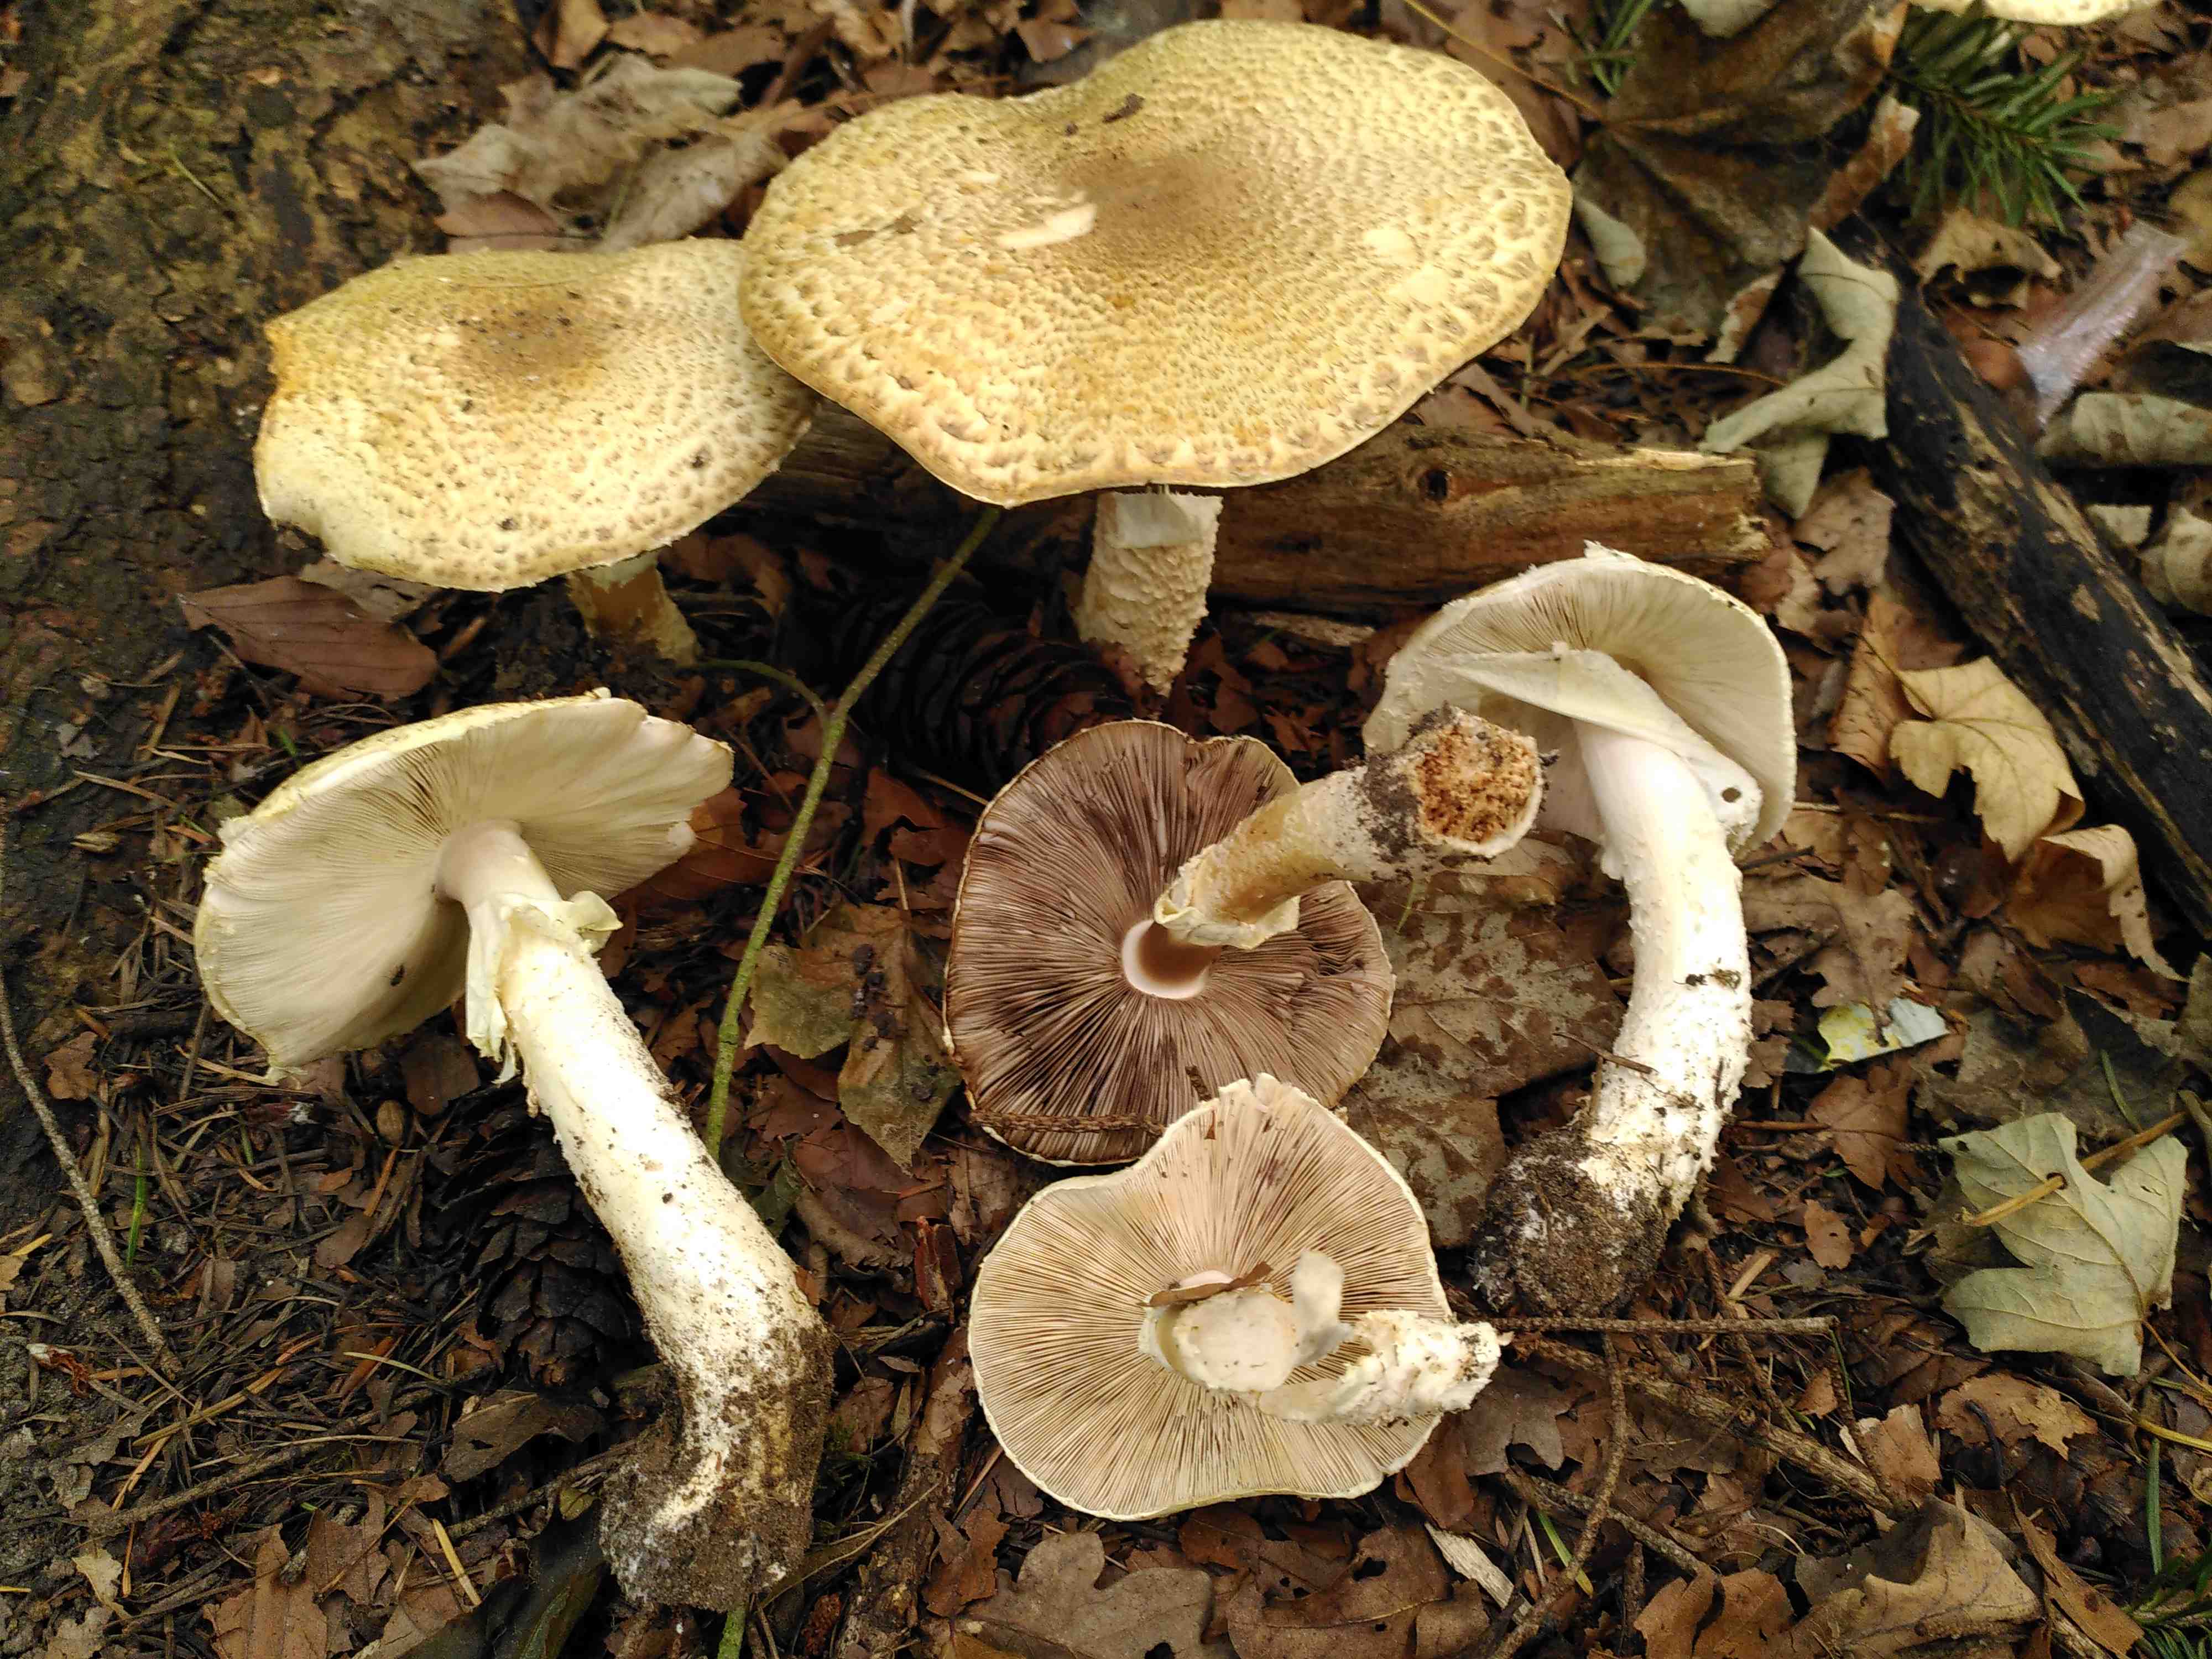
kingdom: Fungi
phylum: Basidiomycota
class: Agaricomycetes
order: Agaricales
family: Agaricaceae
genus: Agaricus
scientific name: Agaricus augustus
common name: prægtig champignon
